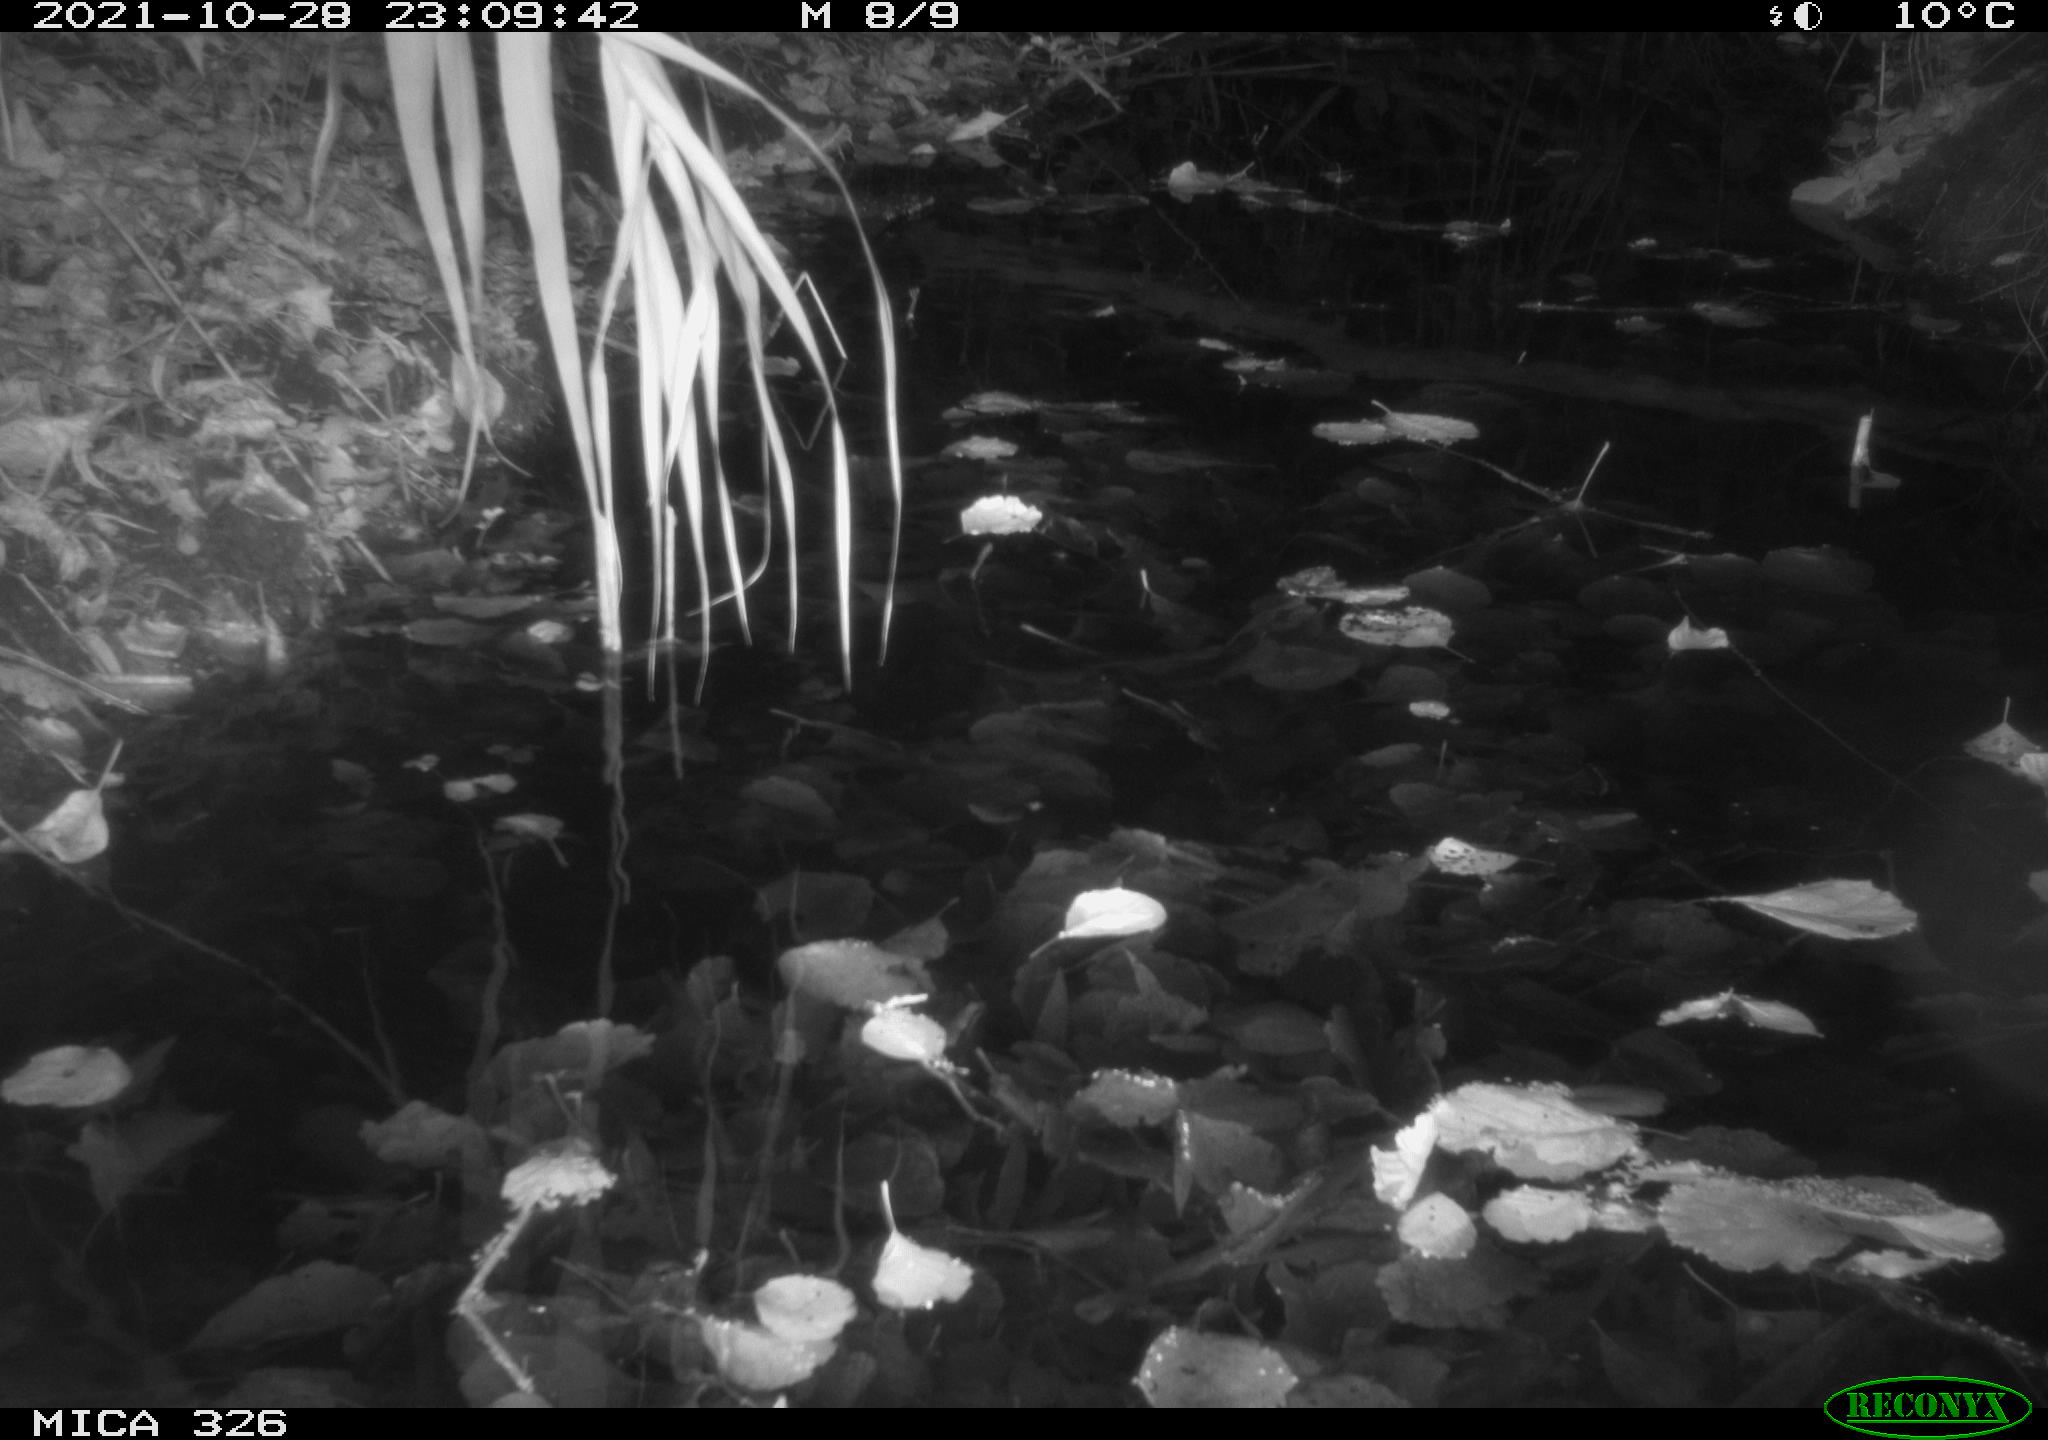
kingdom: Animalia
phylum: Chordata
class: Mammalia
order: Rodentia
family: Muridae
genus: Rattus
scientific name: Rattus norvegicus
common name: Brown rat
